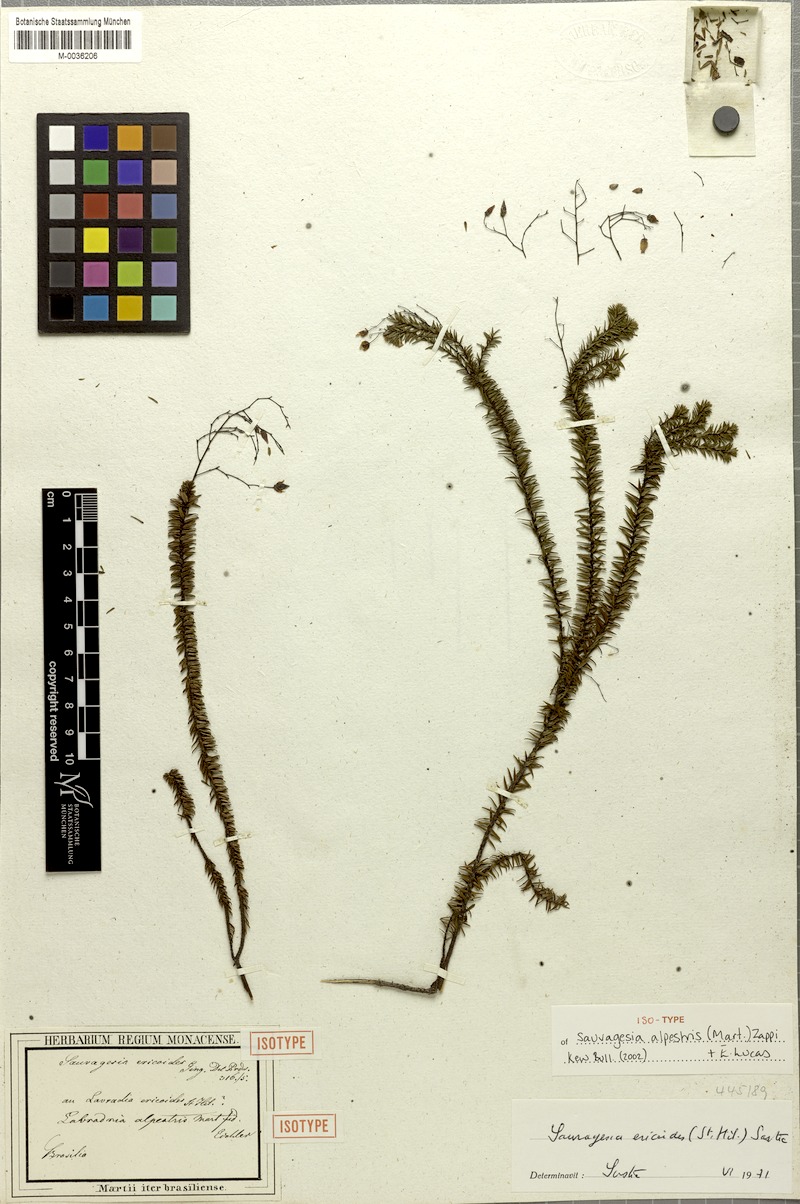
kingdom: Plantae
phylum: Tracheophyta
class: Magnoliopsida
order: Malpighiales
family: Ochnaceae
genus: Sauvagesia
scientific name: Sauvagesia ericoides
